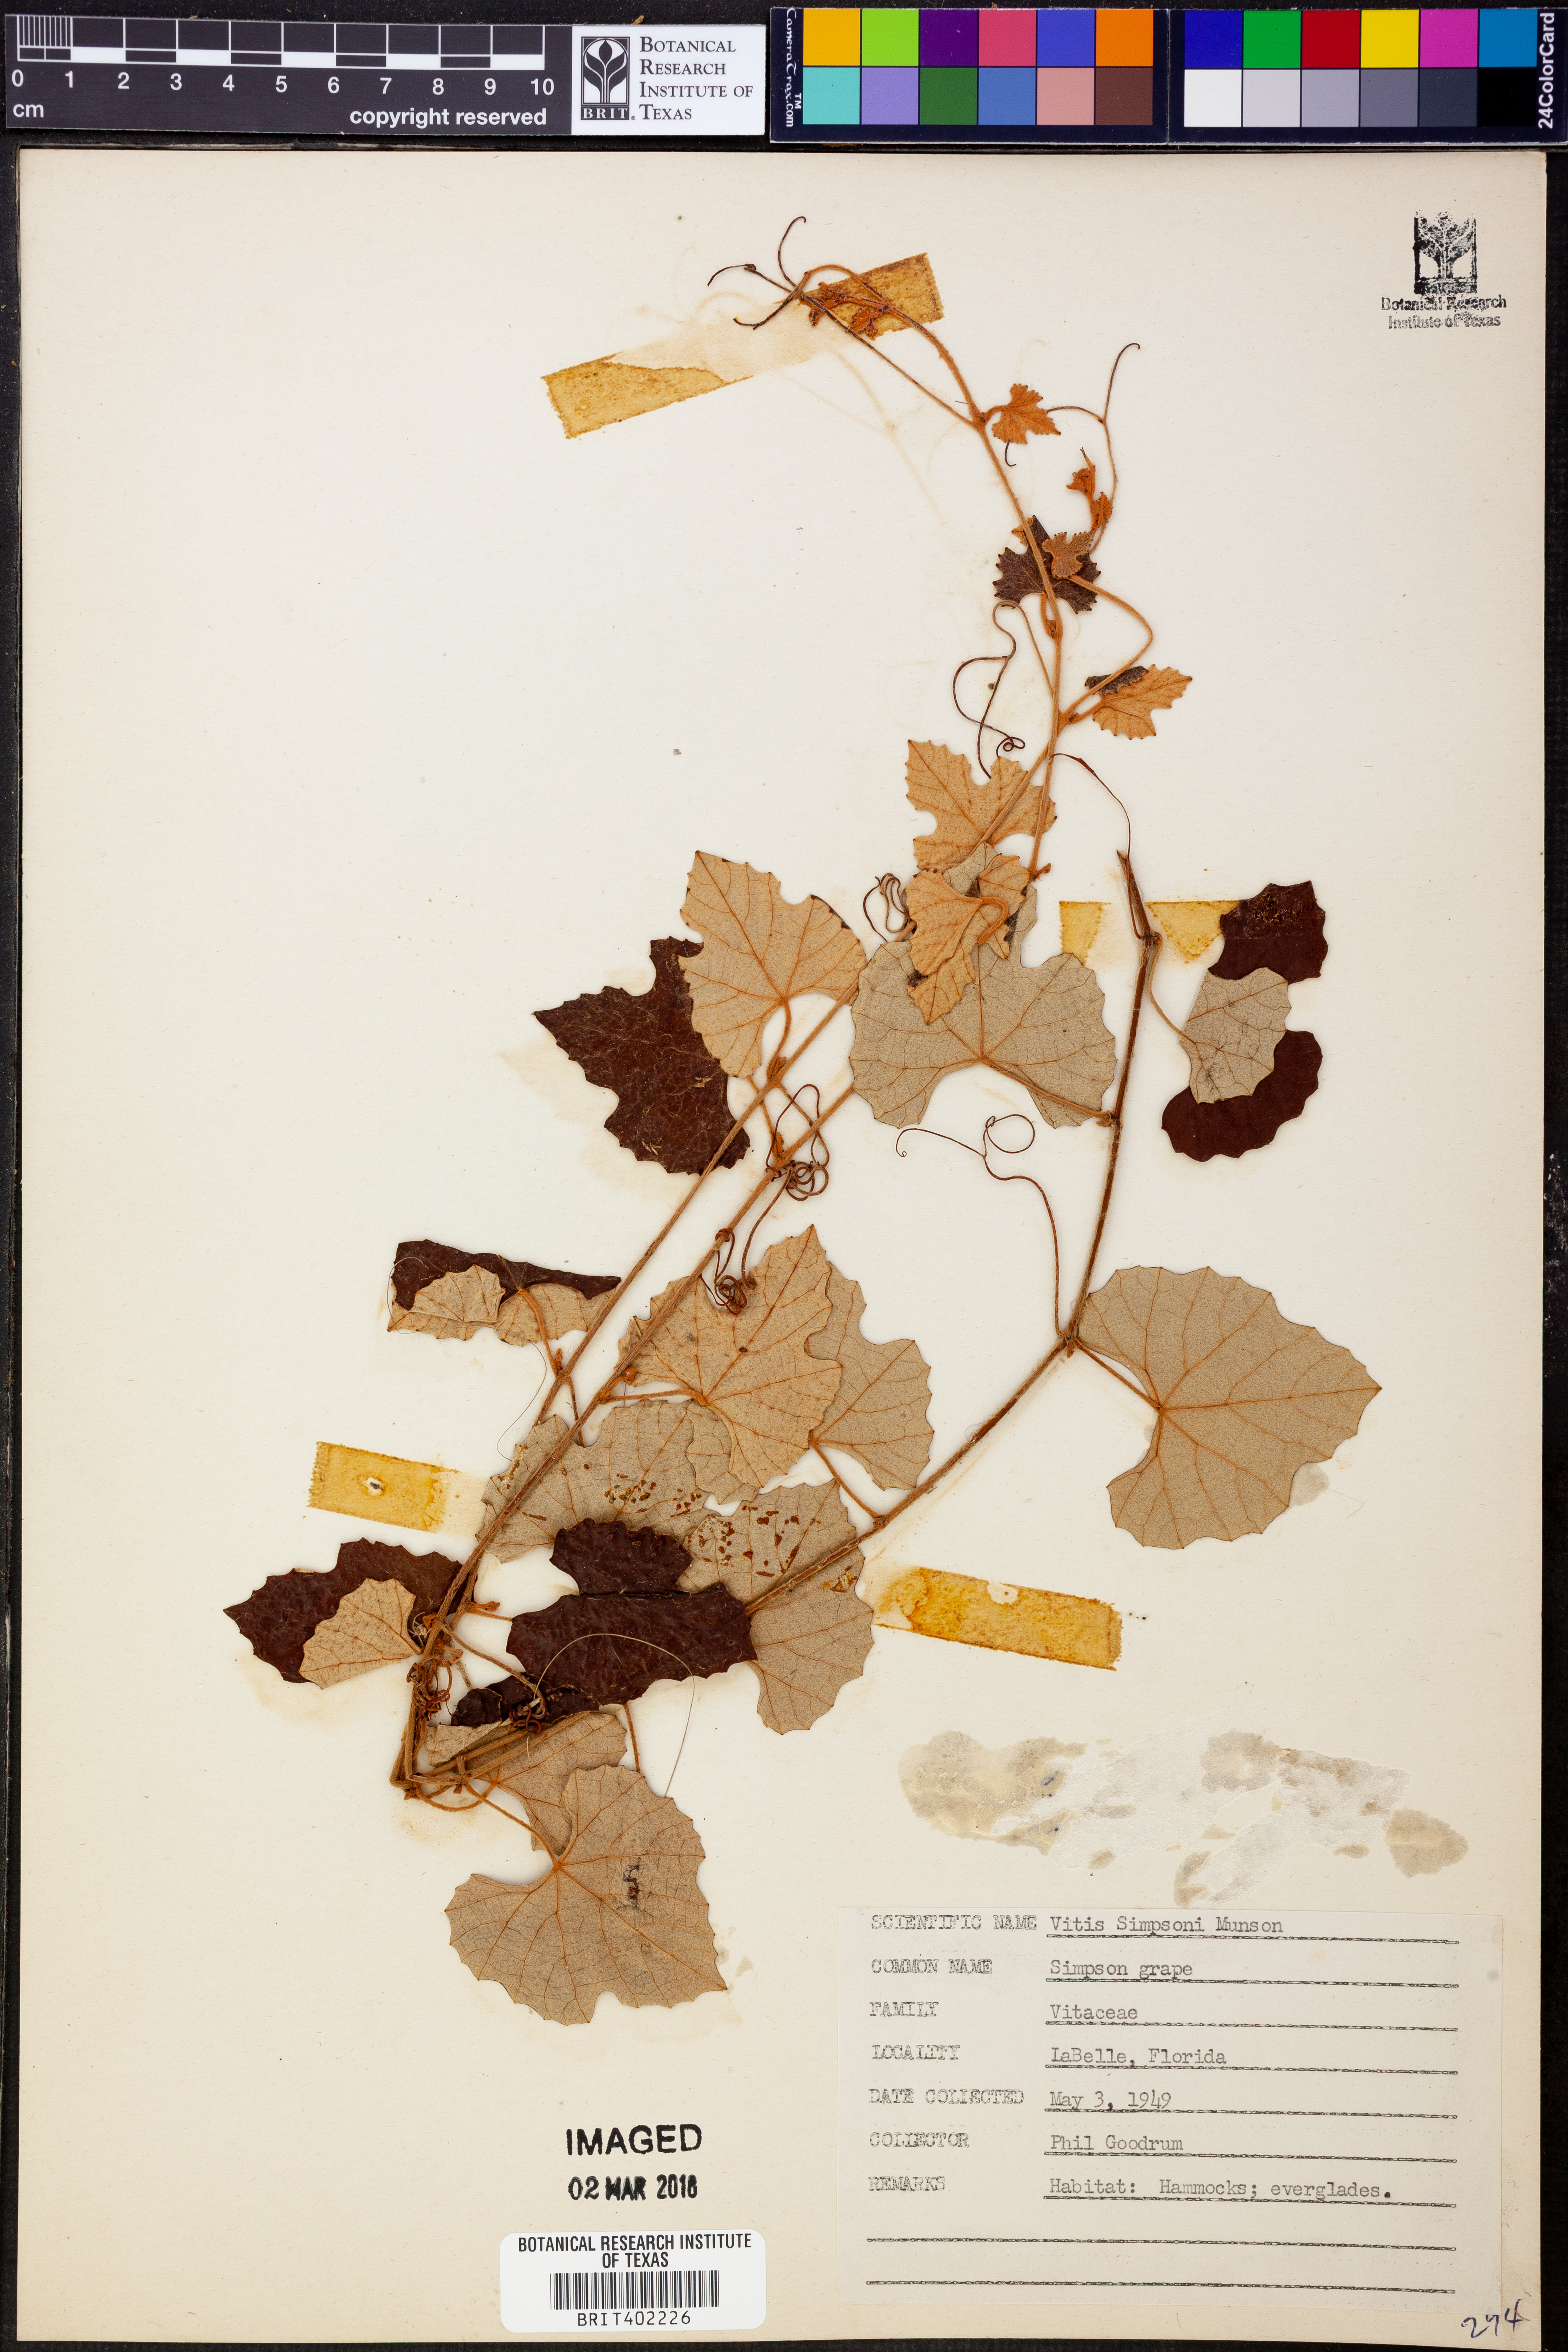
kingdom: Plantae
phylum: Tracheophyta
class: Magnoliopsida
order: Vitales
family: Vitaceae
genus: Vitis
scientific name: Vitis cinerea
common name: Ashy grape
